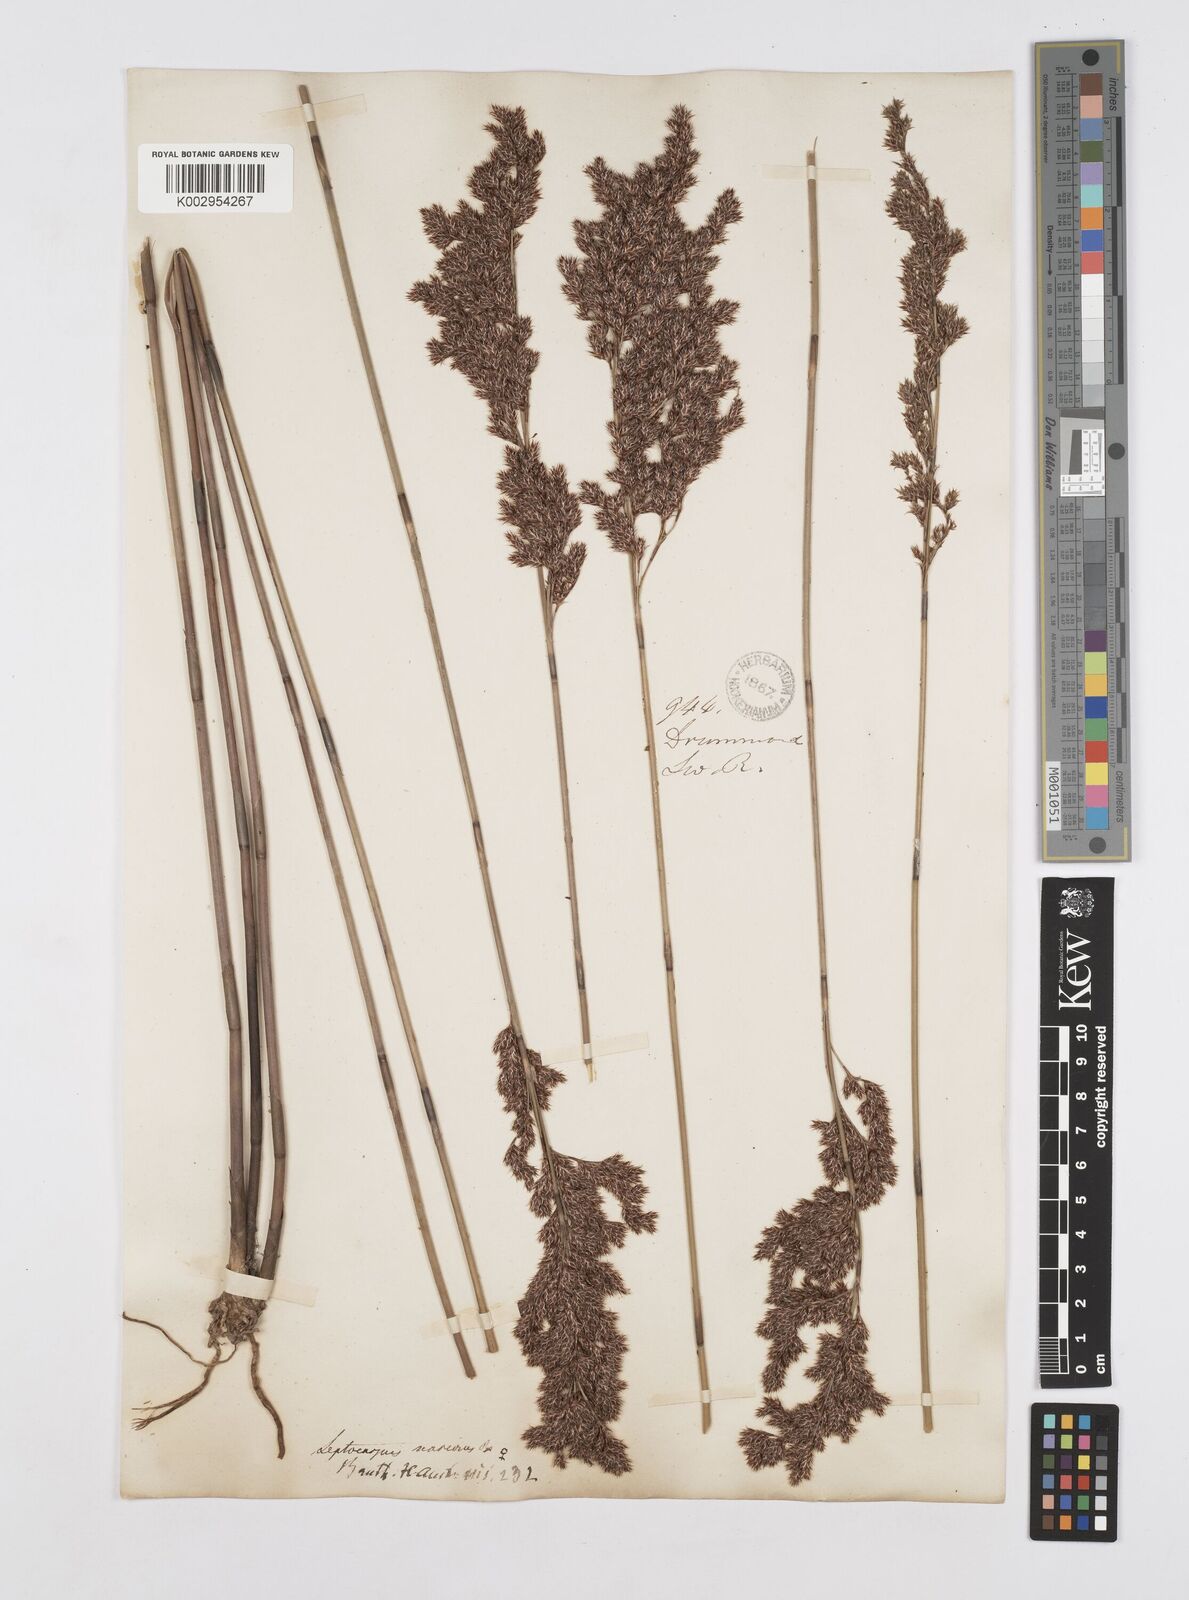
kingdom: Plantae
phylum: Tracheophyta
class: Liliopsida
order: Poales
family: Restionaceae
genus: Leptocarpus
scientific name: Leptocarpus scariosus
